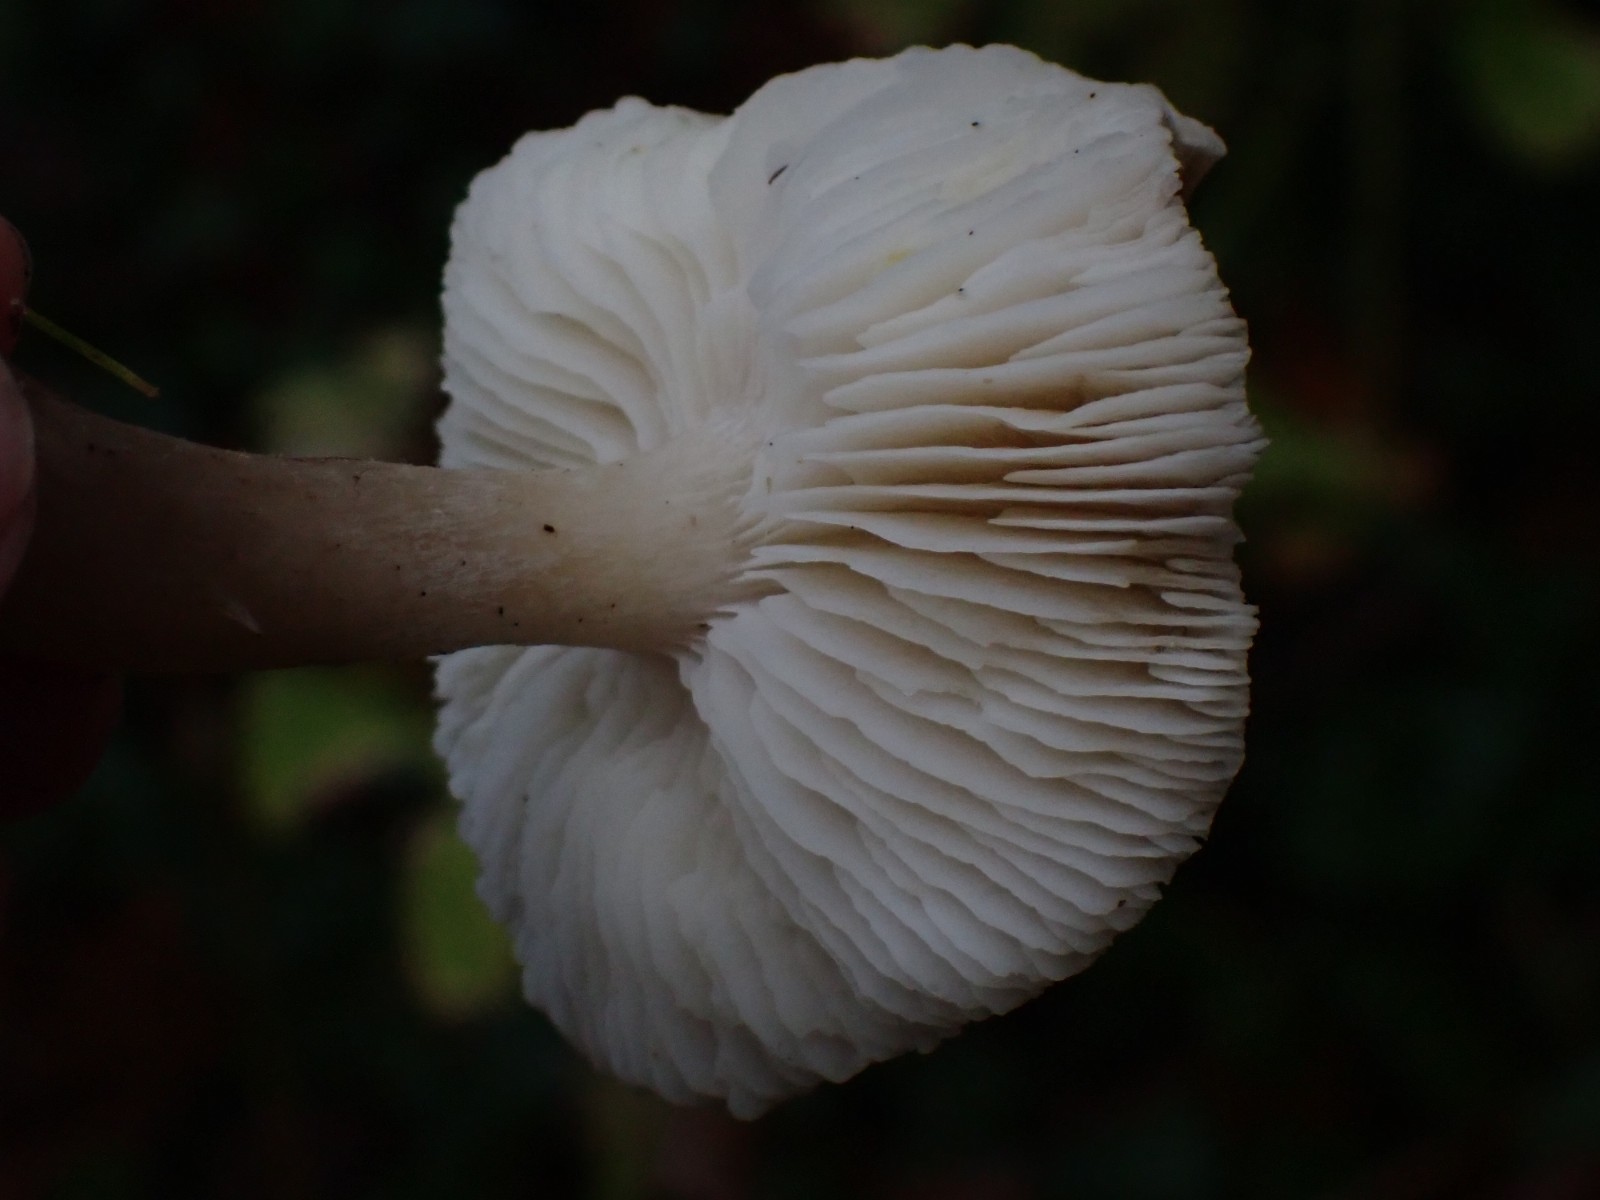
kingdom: Fungi
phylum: Basidiomycota
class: Agaricomycetes
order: Agaricales
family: Tricholomataceae
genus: Tricholoma
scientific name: Tricholoma scalpturatum
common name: gulplettet ridderhat
